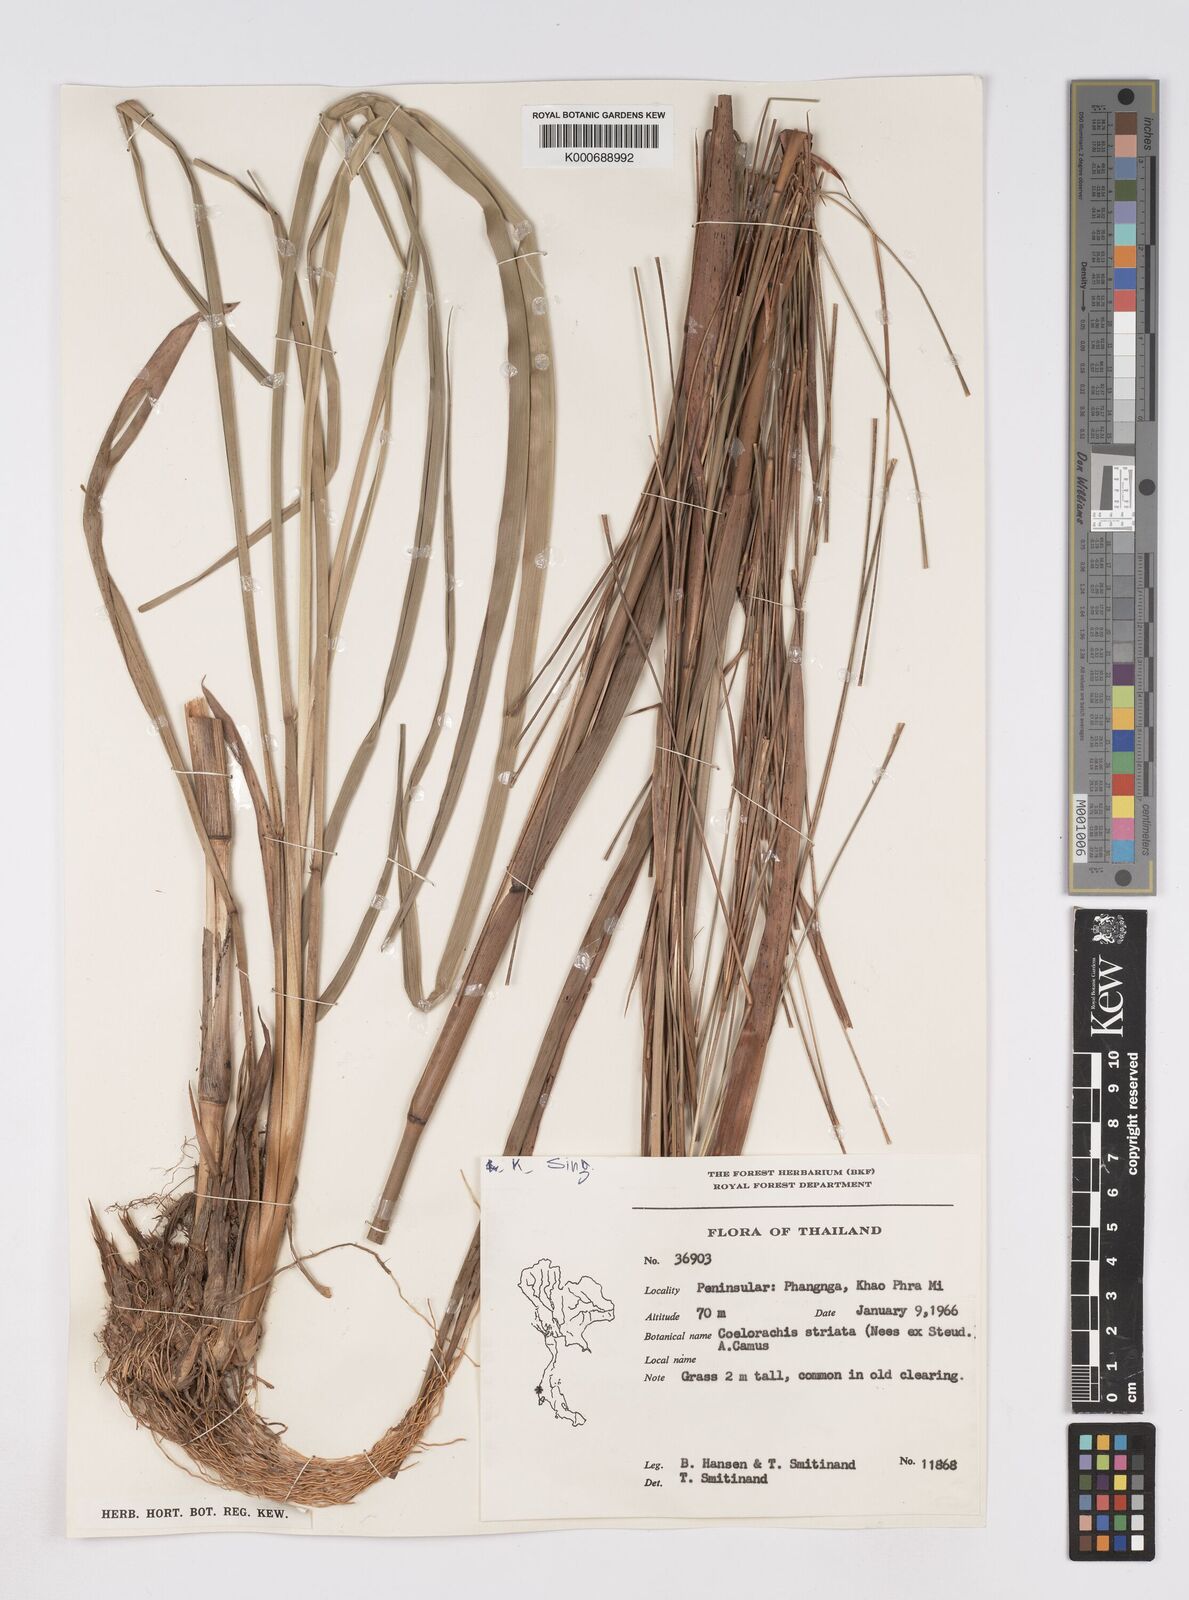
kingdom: Plantae
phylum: Tracheophyta
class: Liliopsida
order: Poales
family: Poaceae
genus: Rottboellia
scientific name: Rottboellia striata
